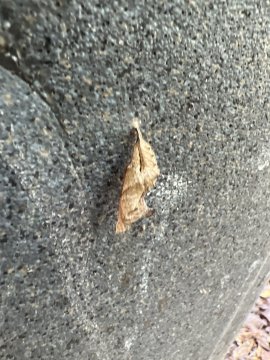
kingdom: Animalia
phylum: Arthropoda
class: Insecta
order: Lepidoptera
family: Nymphalidae
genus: Polygonia
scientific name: Polygonia interrogationis
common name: Question Mark
